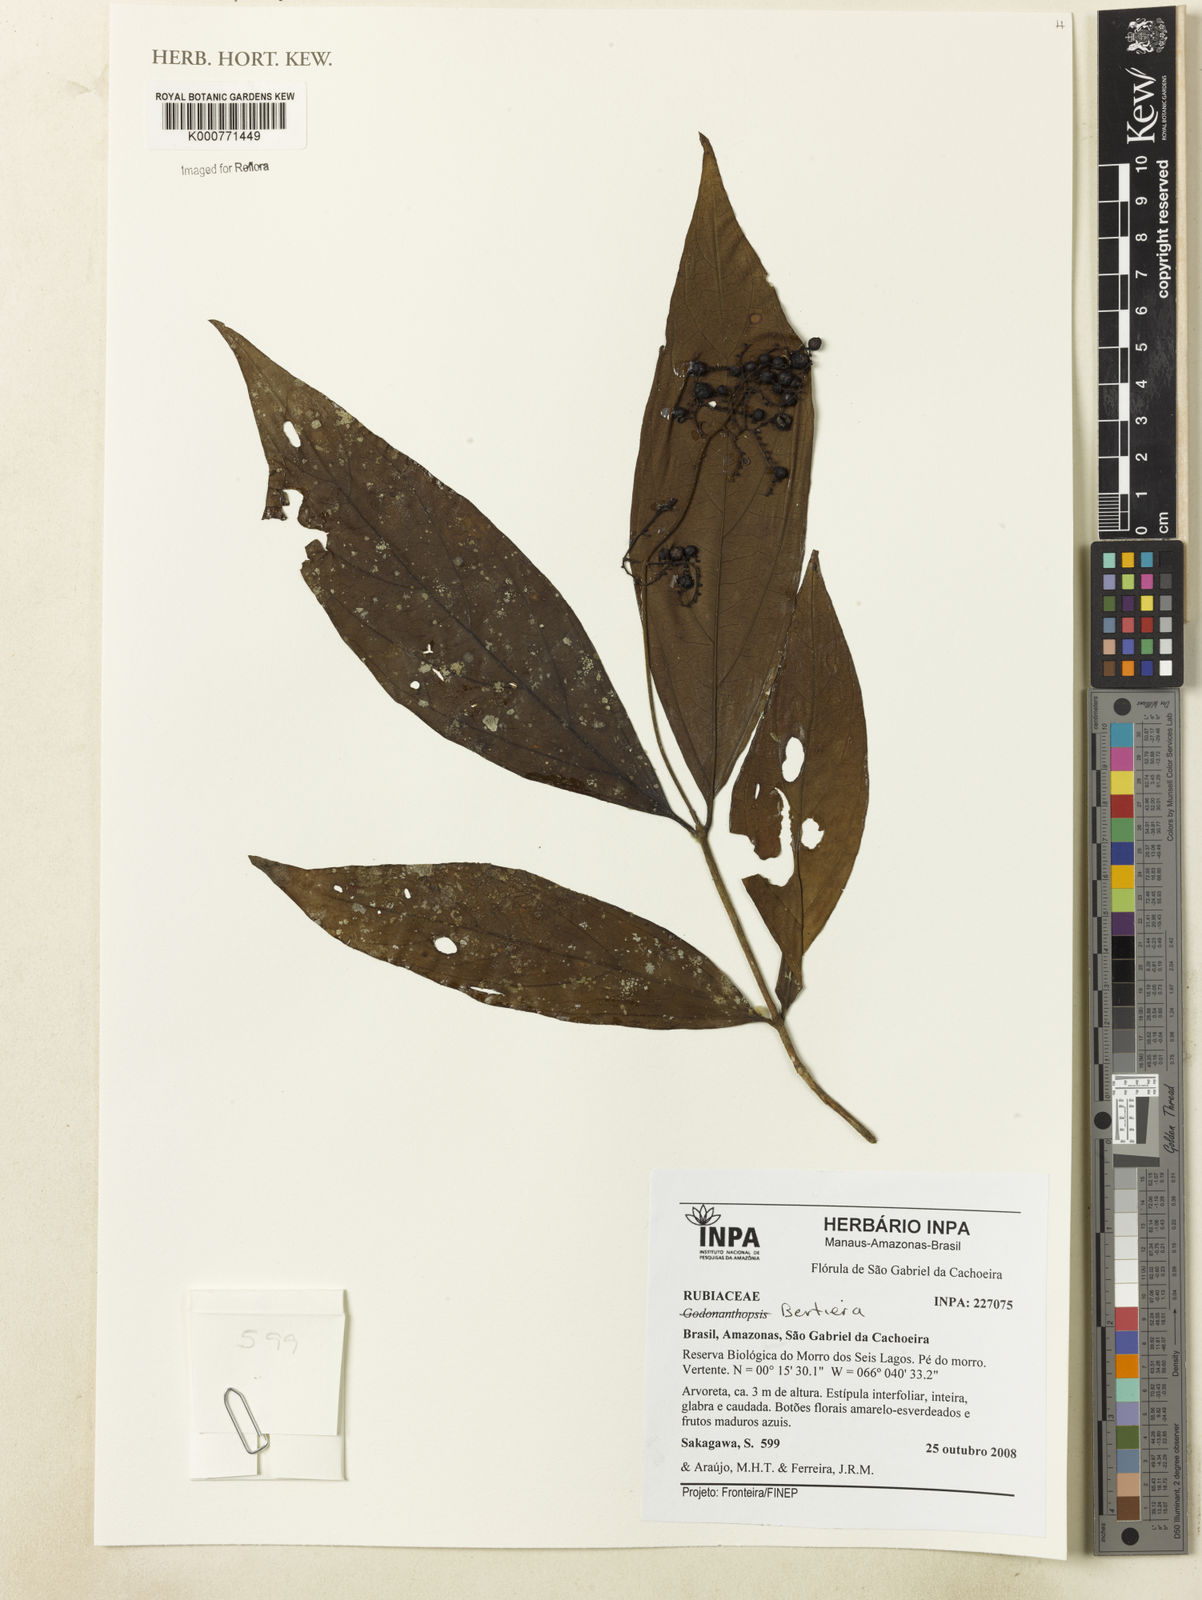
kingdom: Plantae
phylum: Tracheophyta
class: Magnoliopsida
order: Gentianales
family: Rubiaceae
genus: Bertiera
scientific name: Bertiera
